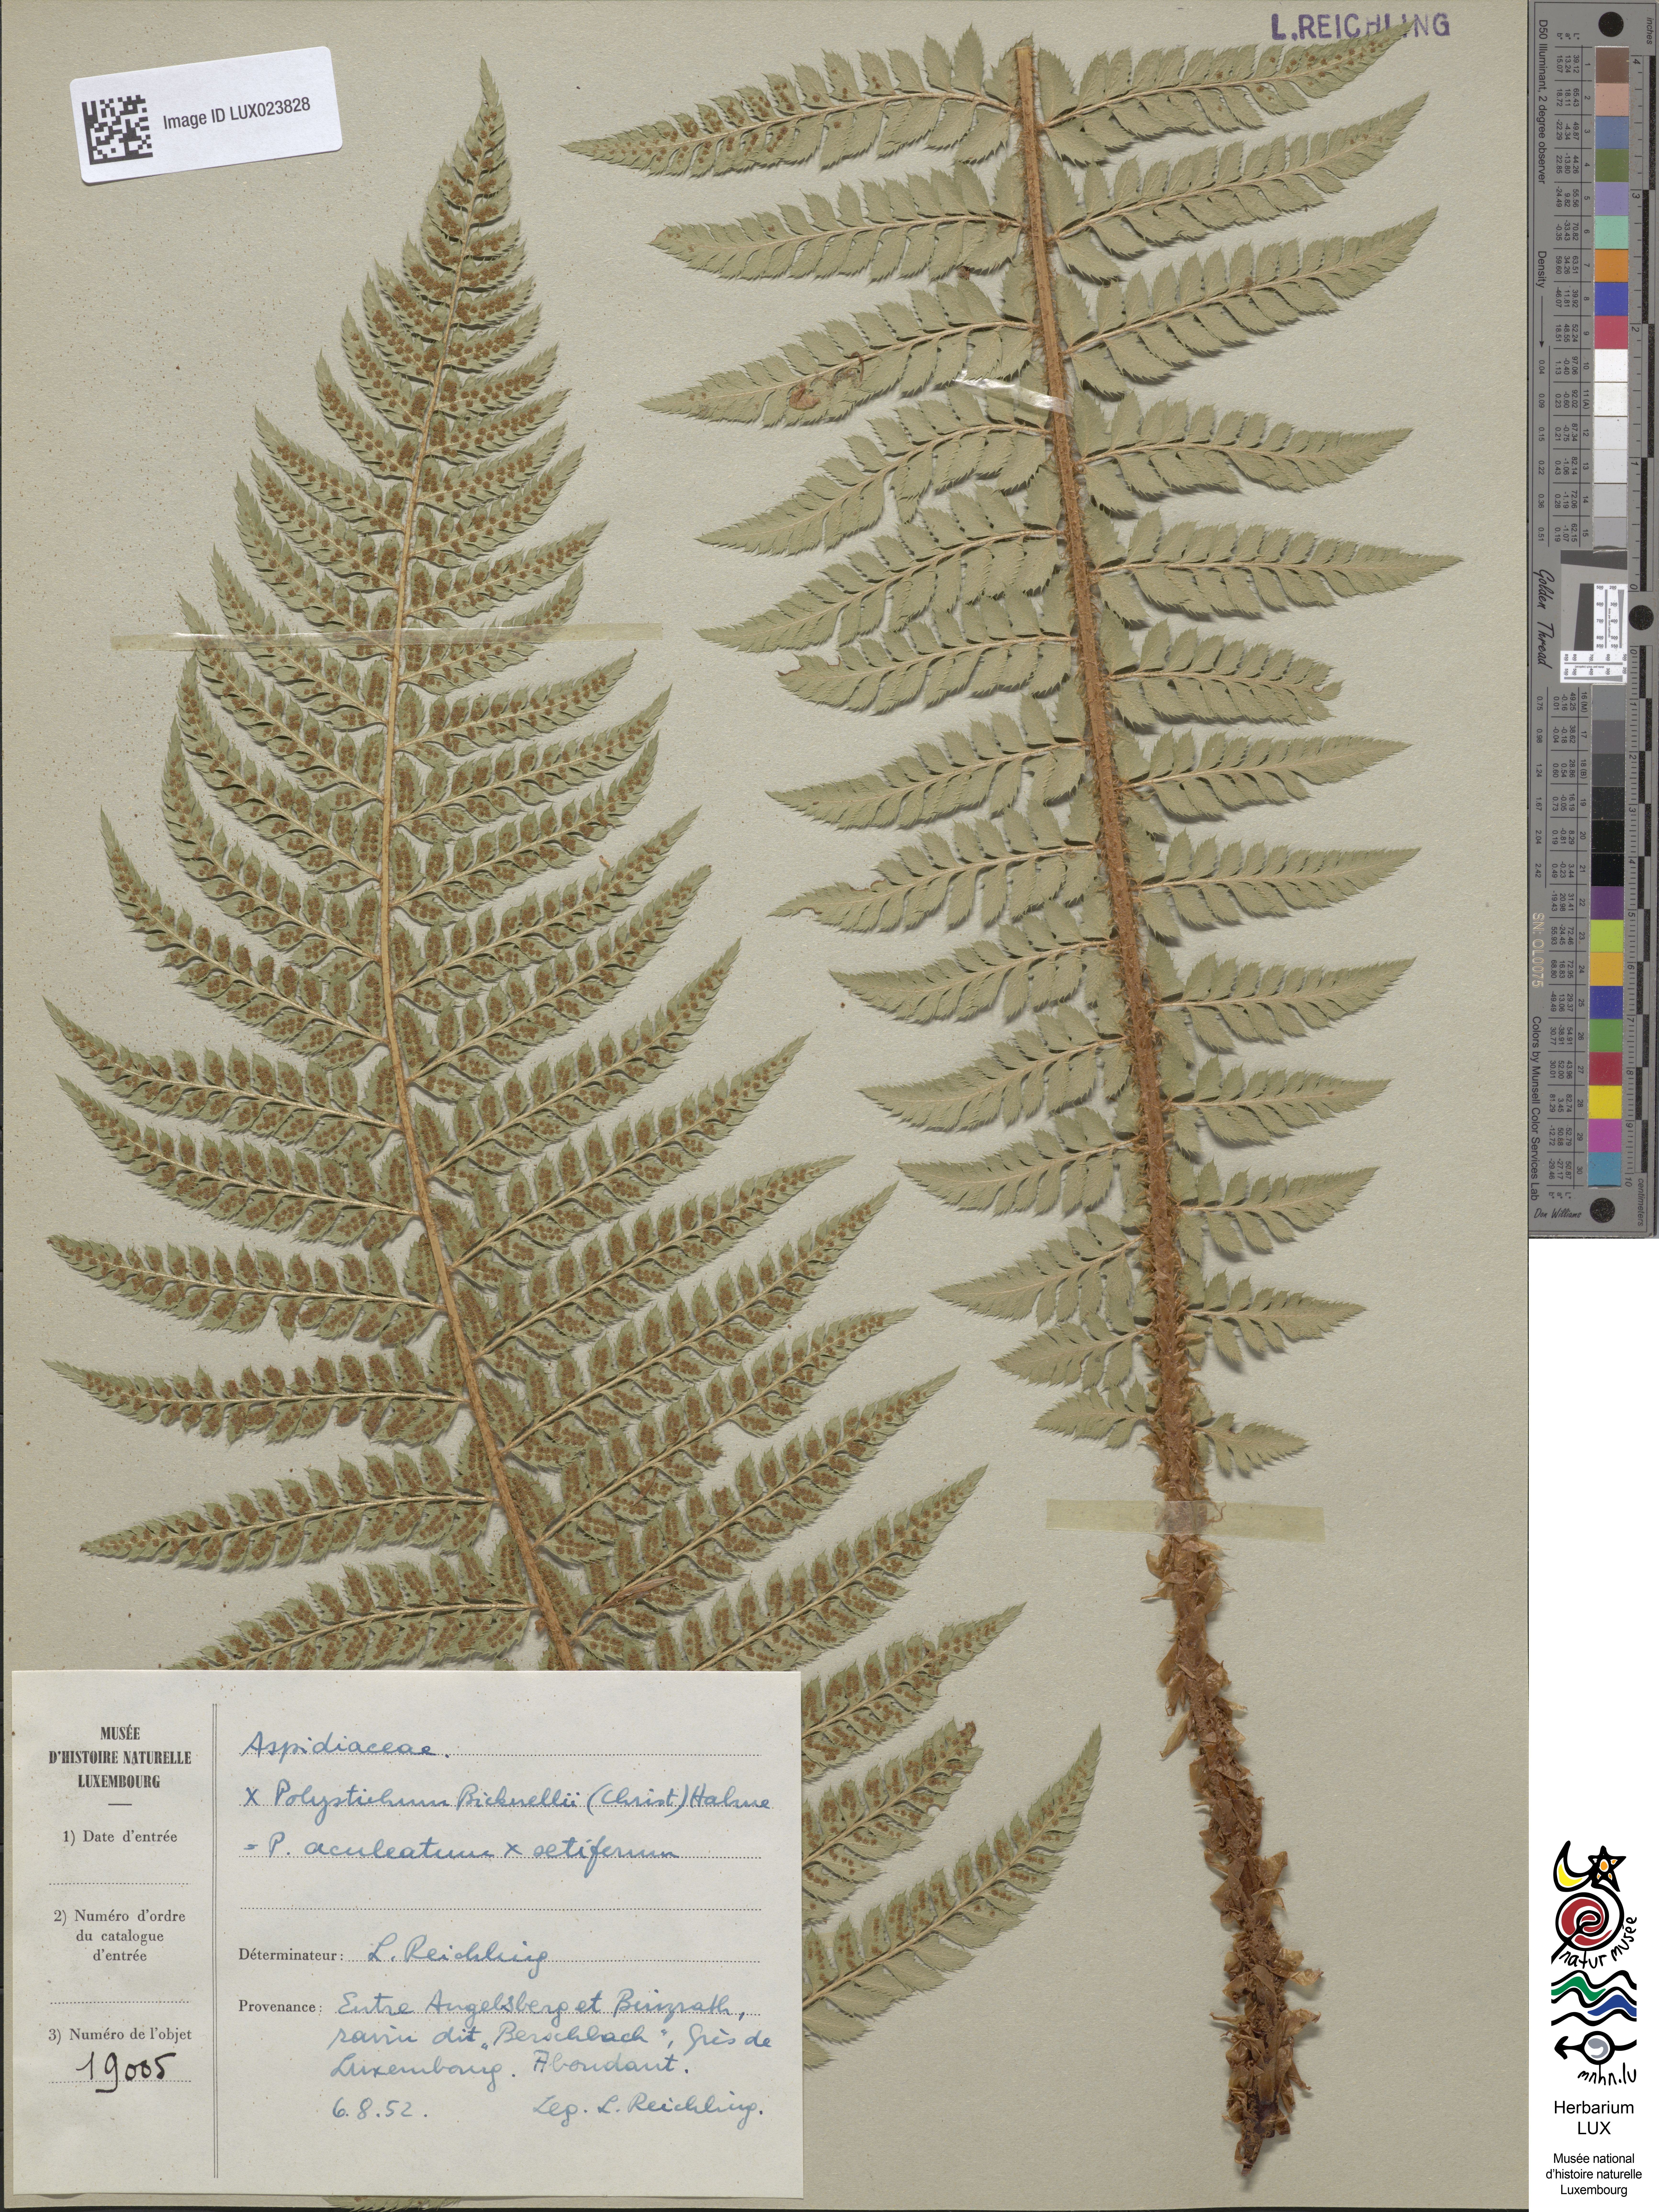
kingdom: Plantae
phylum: Tracheophyta
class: Polypodiopsida
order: Polypodiales
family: Dryopteridaceae
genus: Polystichum
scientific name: Polystichum
